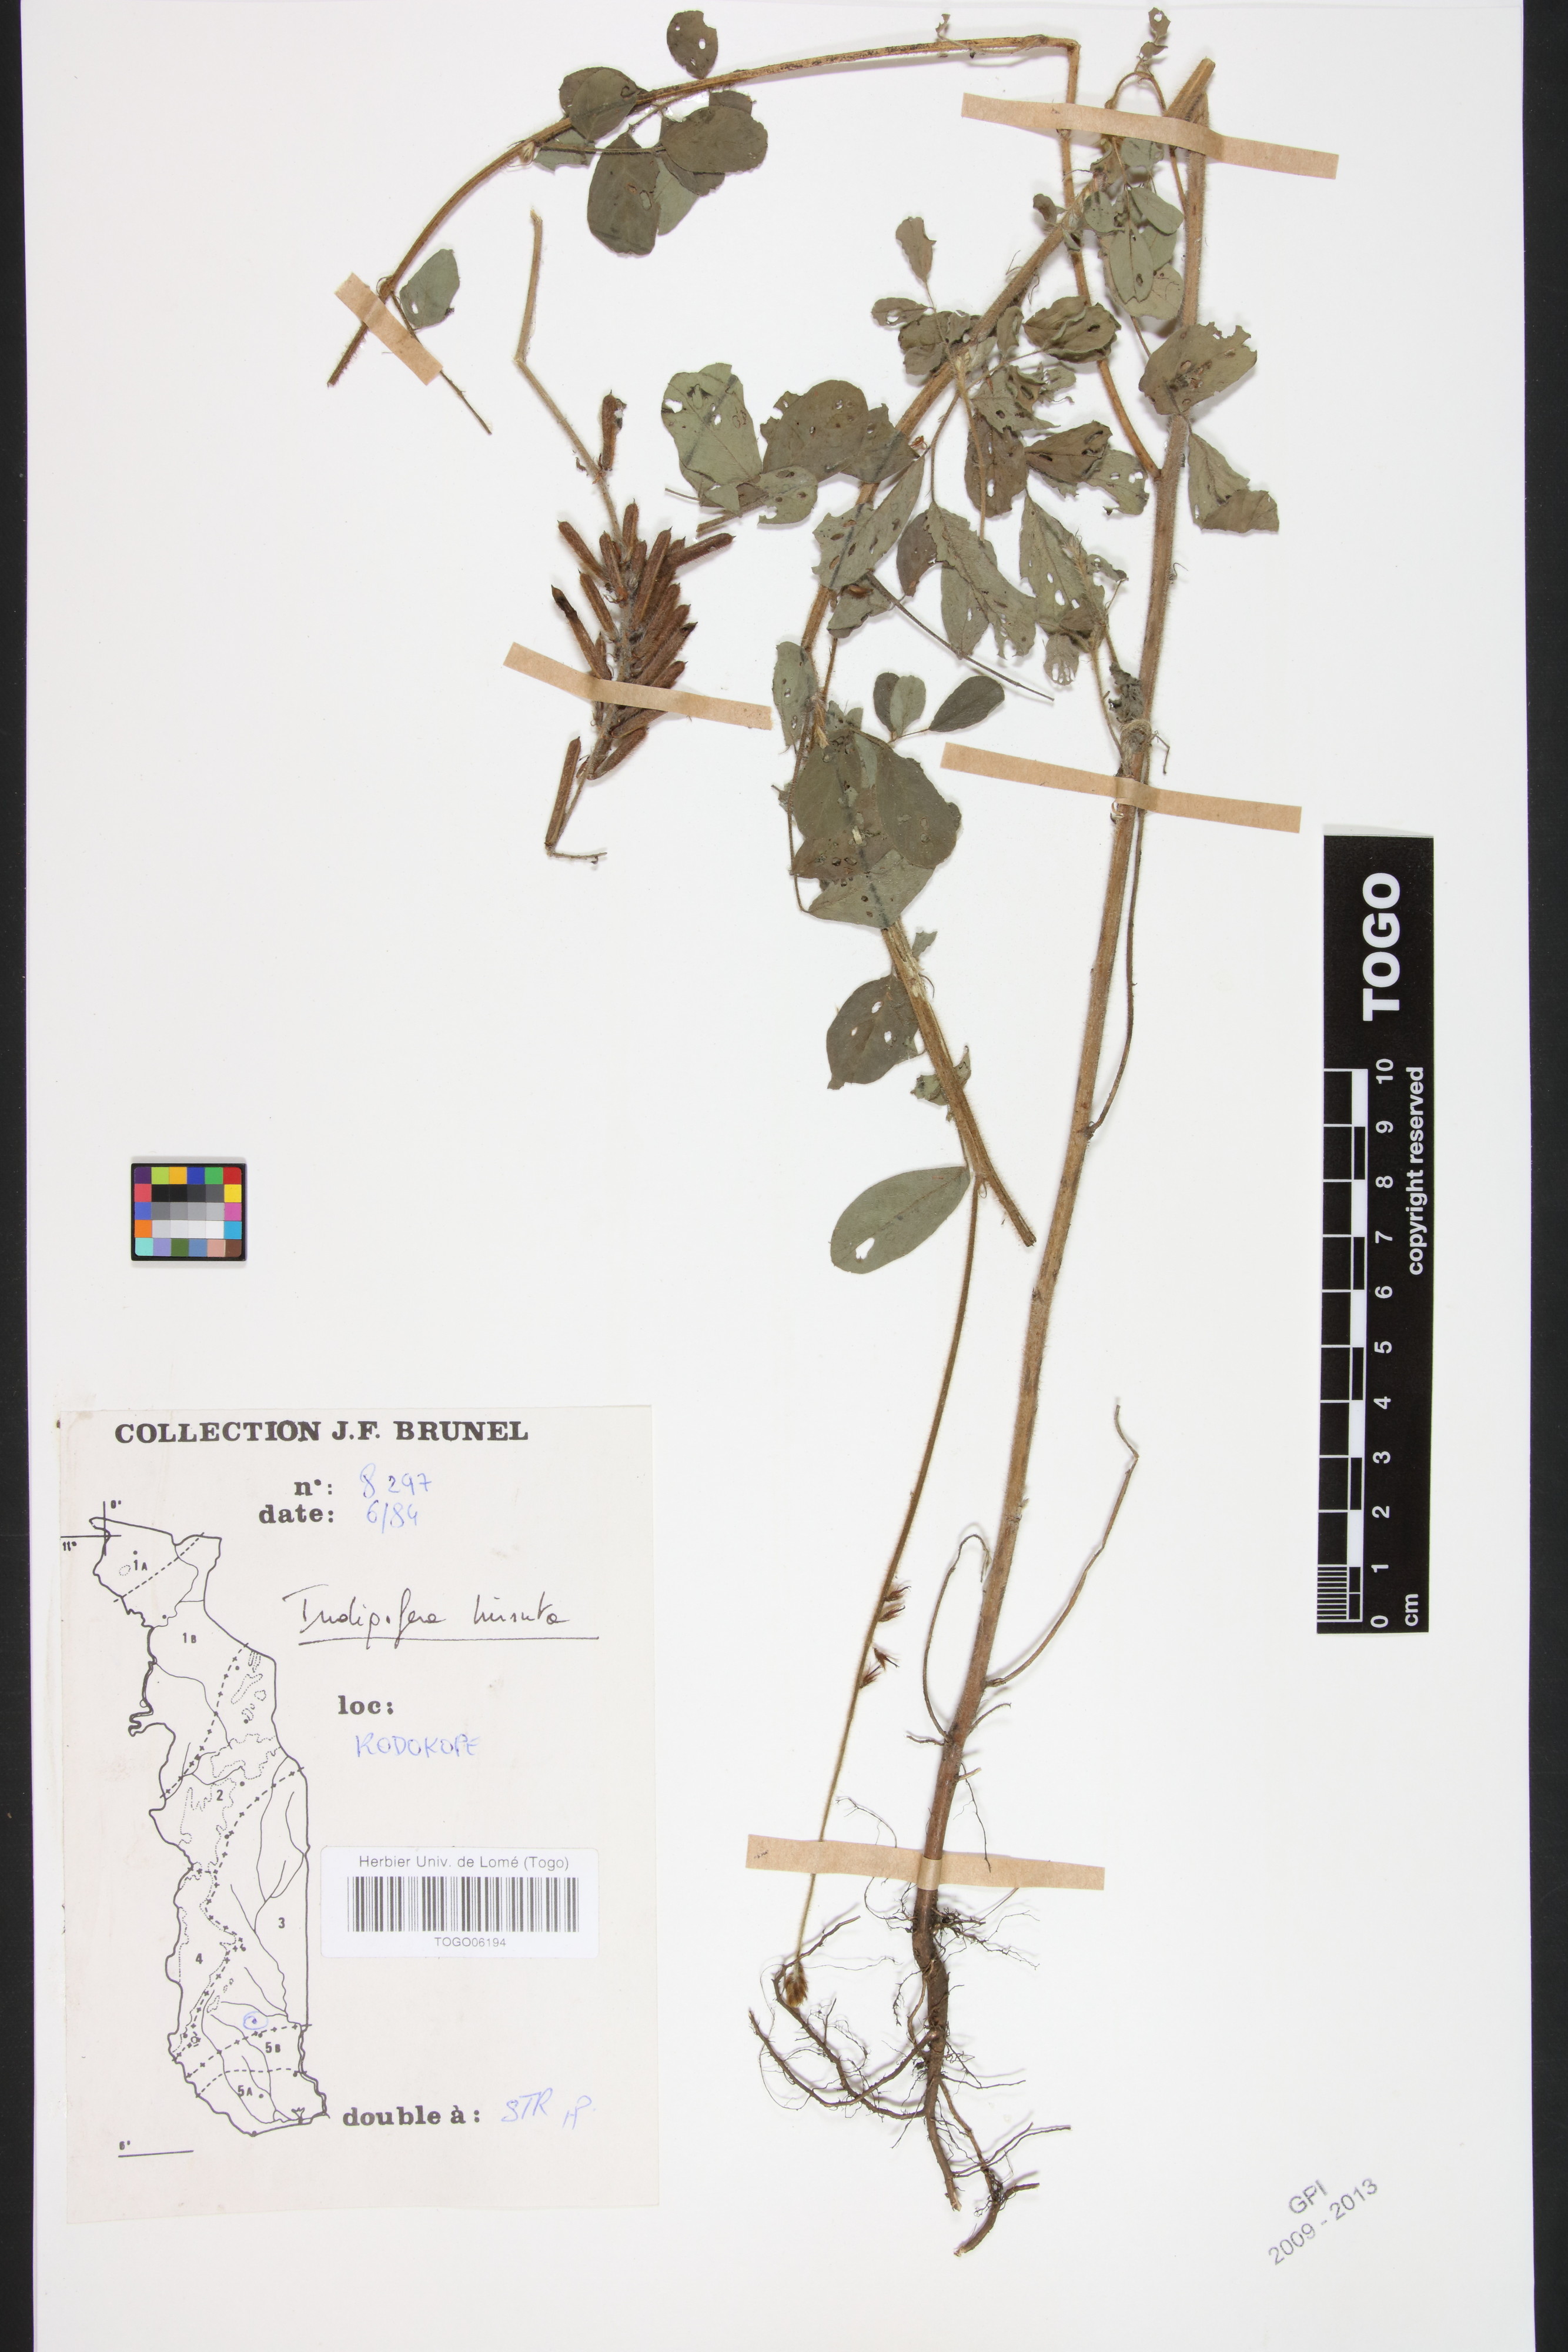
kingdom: Plantae
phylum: Tracheophyta
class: Magnoliopsida
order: Fabales
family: Fabaceae
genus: Indigofera
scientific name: Indigofera hirsuta
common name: Hairy indigo
